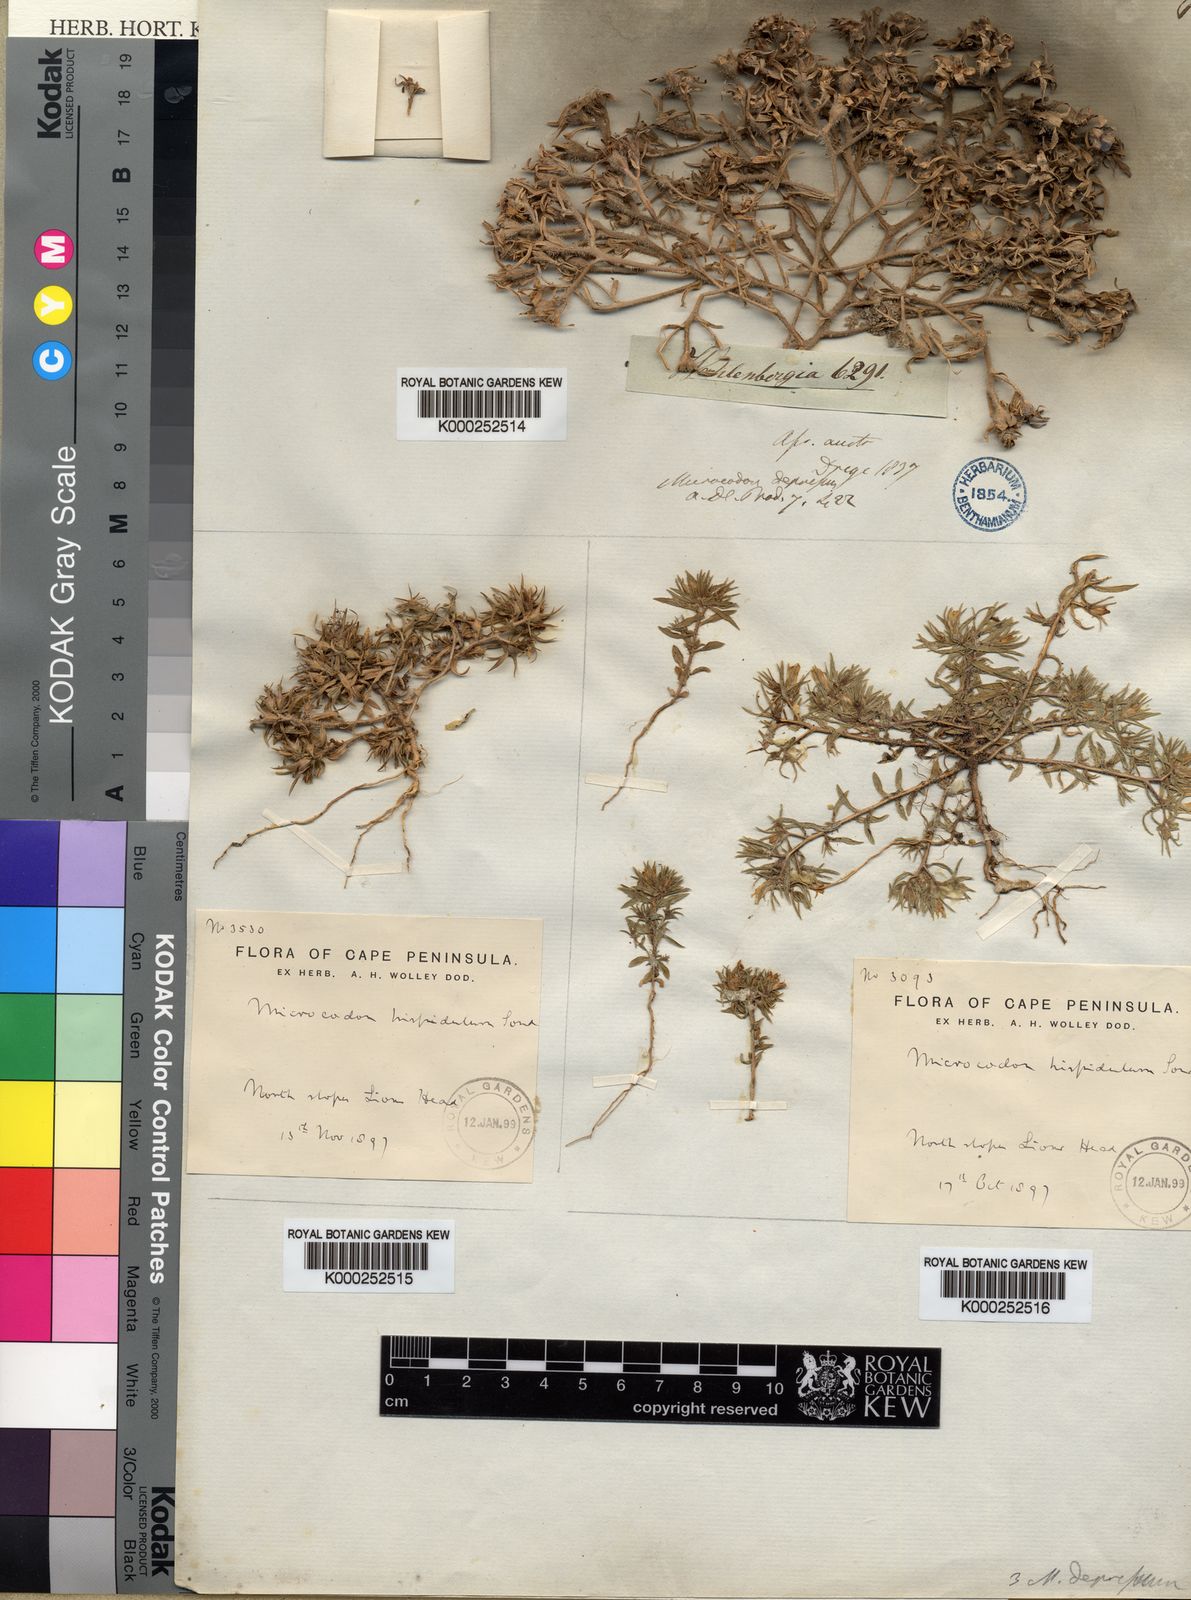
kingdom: Plantae
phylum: Tracheophyta
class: Magnoliopsida
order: Asterales
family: Campanulaceae
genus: Microcodon
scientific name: Microcodon hispidulus
